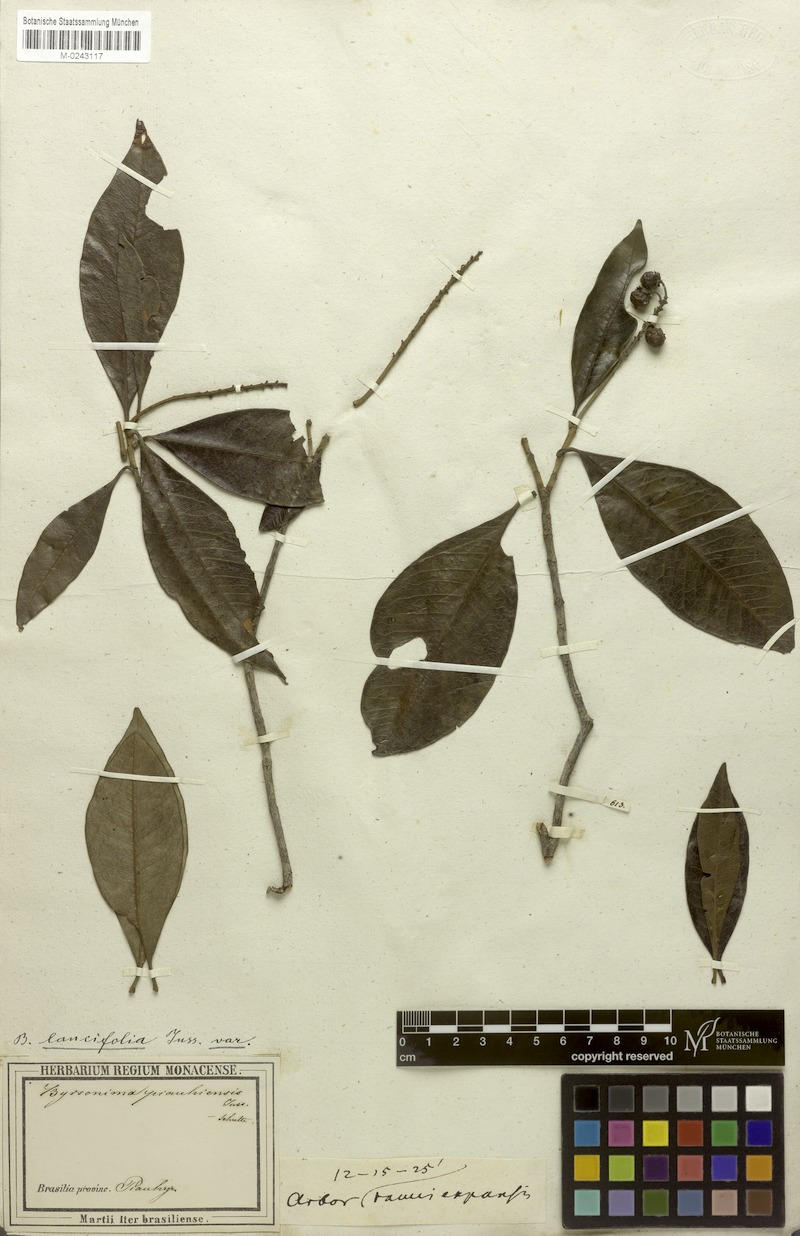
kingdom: Plantae
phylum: Tracheophyta
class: Magnoliopsida
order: Malpighiales
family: Malpighiaceae
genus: Byrsonima
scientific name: Byrsonima lancifolia
